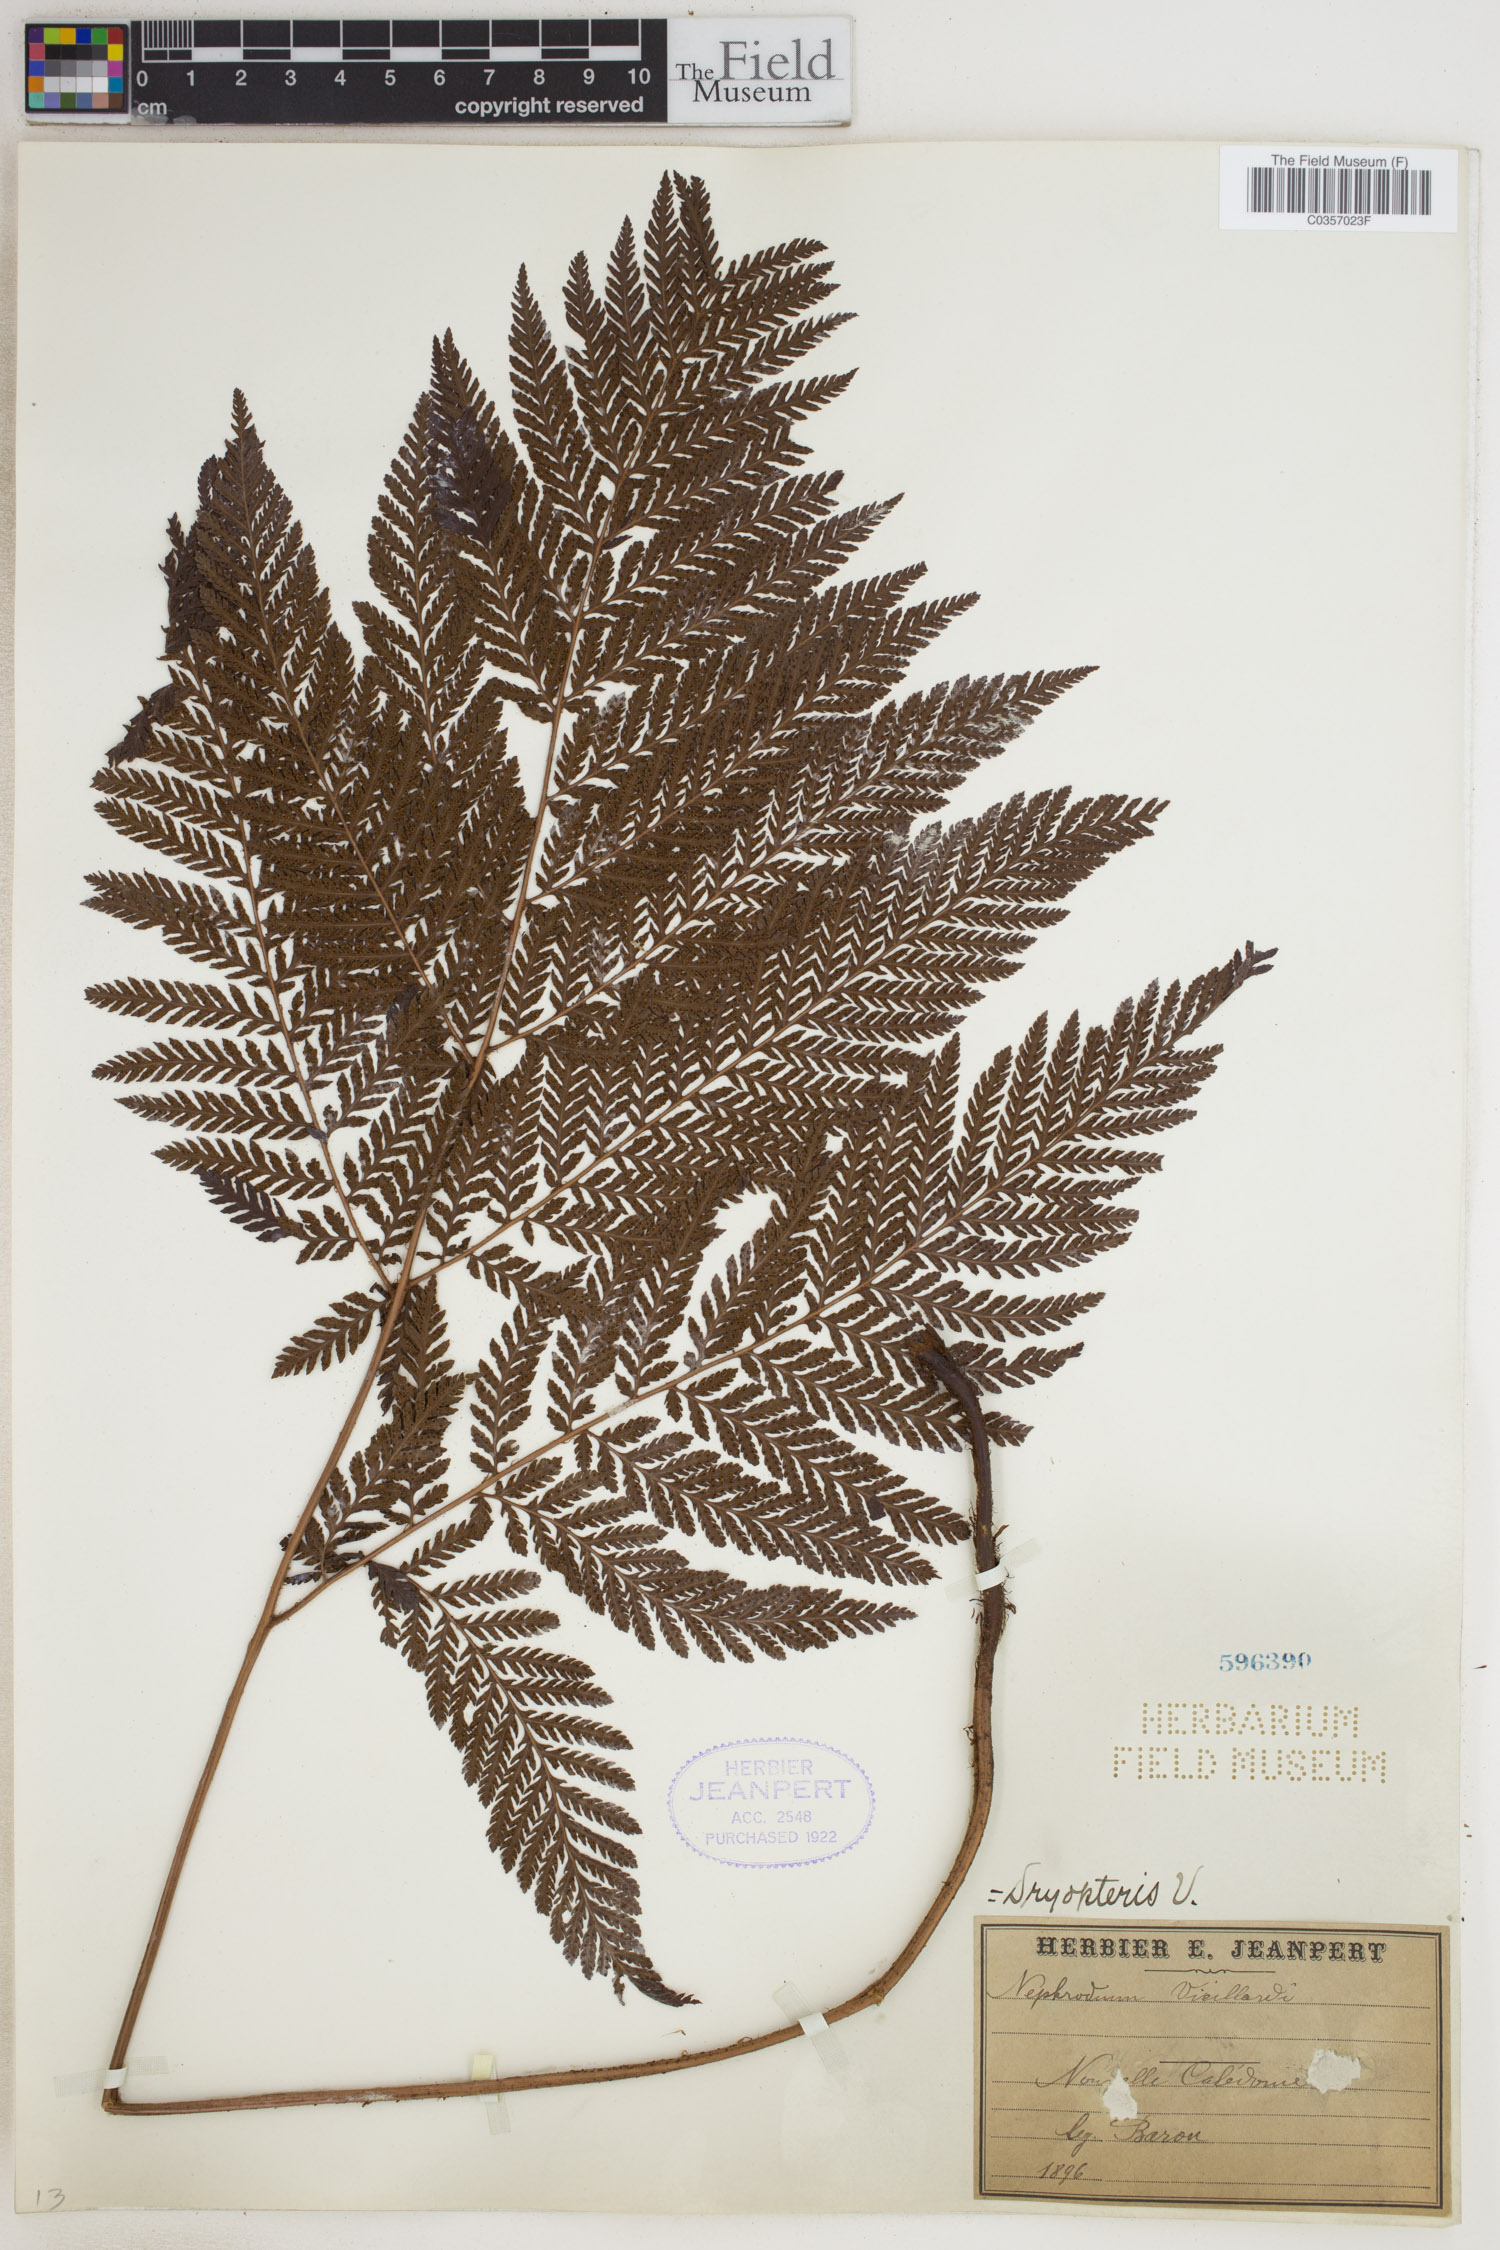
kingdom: Plantae
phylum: Tracheophyta
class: Polypodiopsida
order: Polypodiales
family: Tectariaceae
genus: Tectaria
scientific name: Tectaria vieillardii
